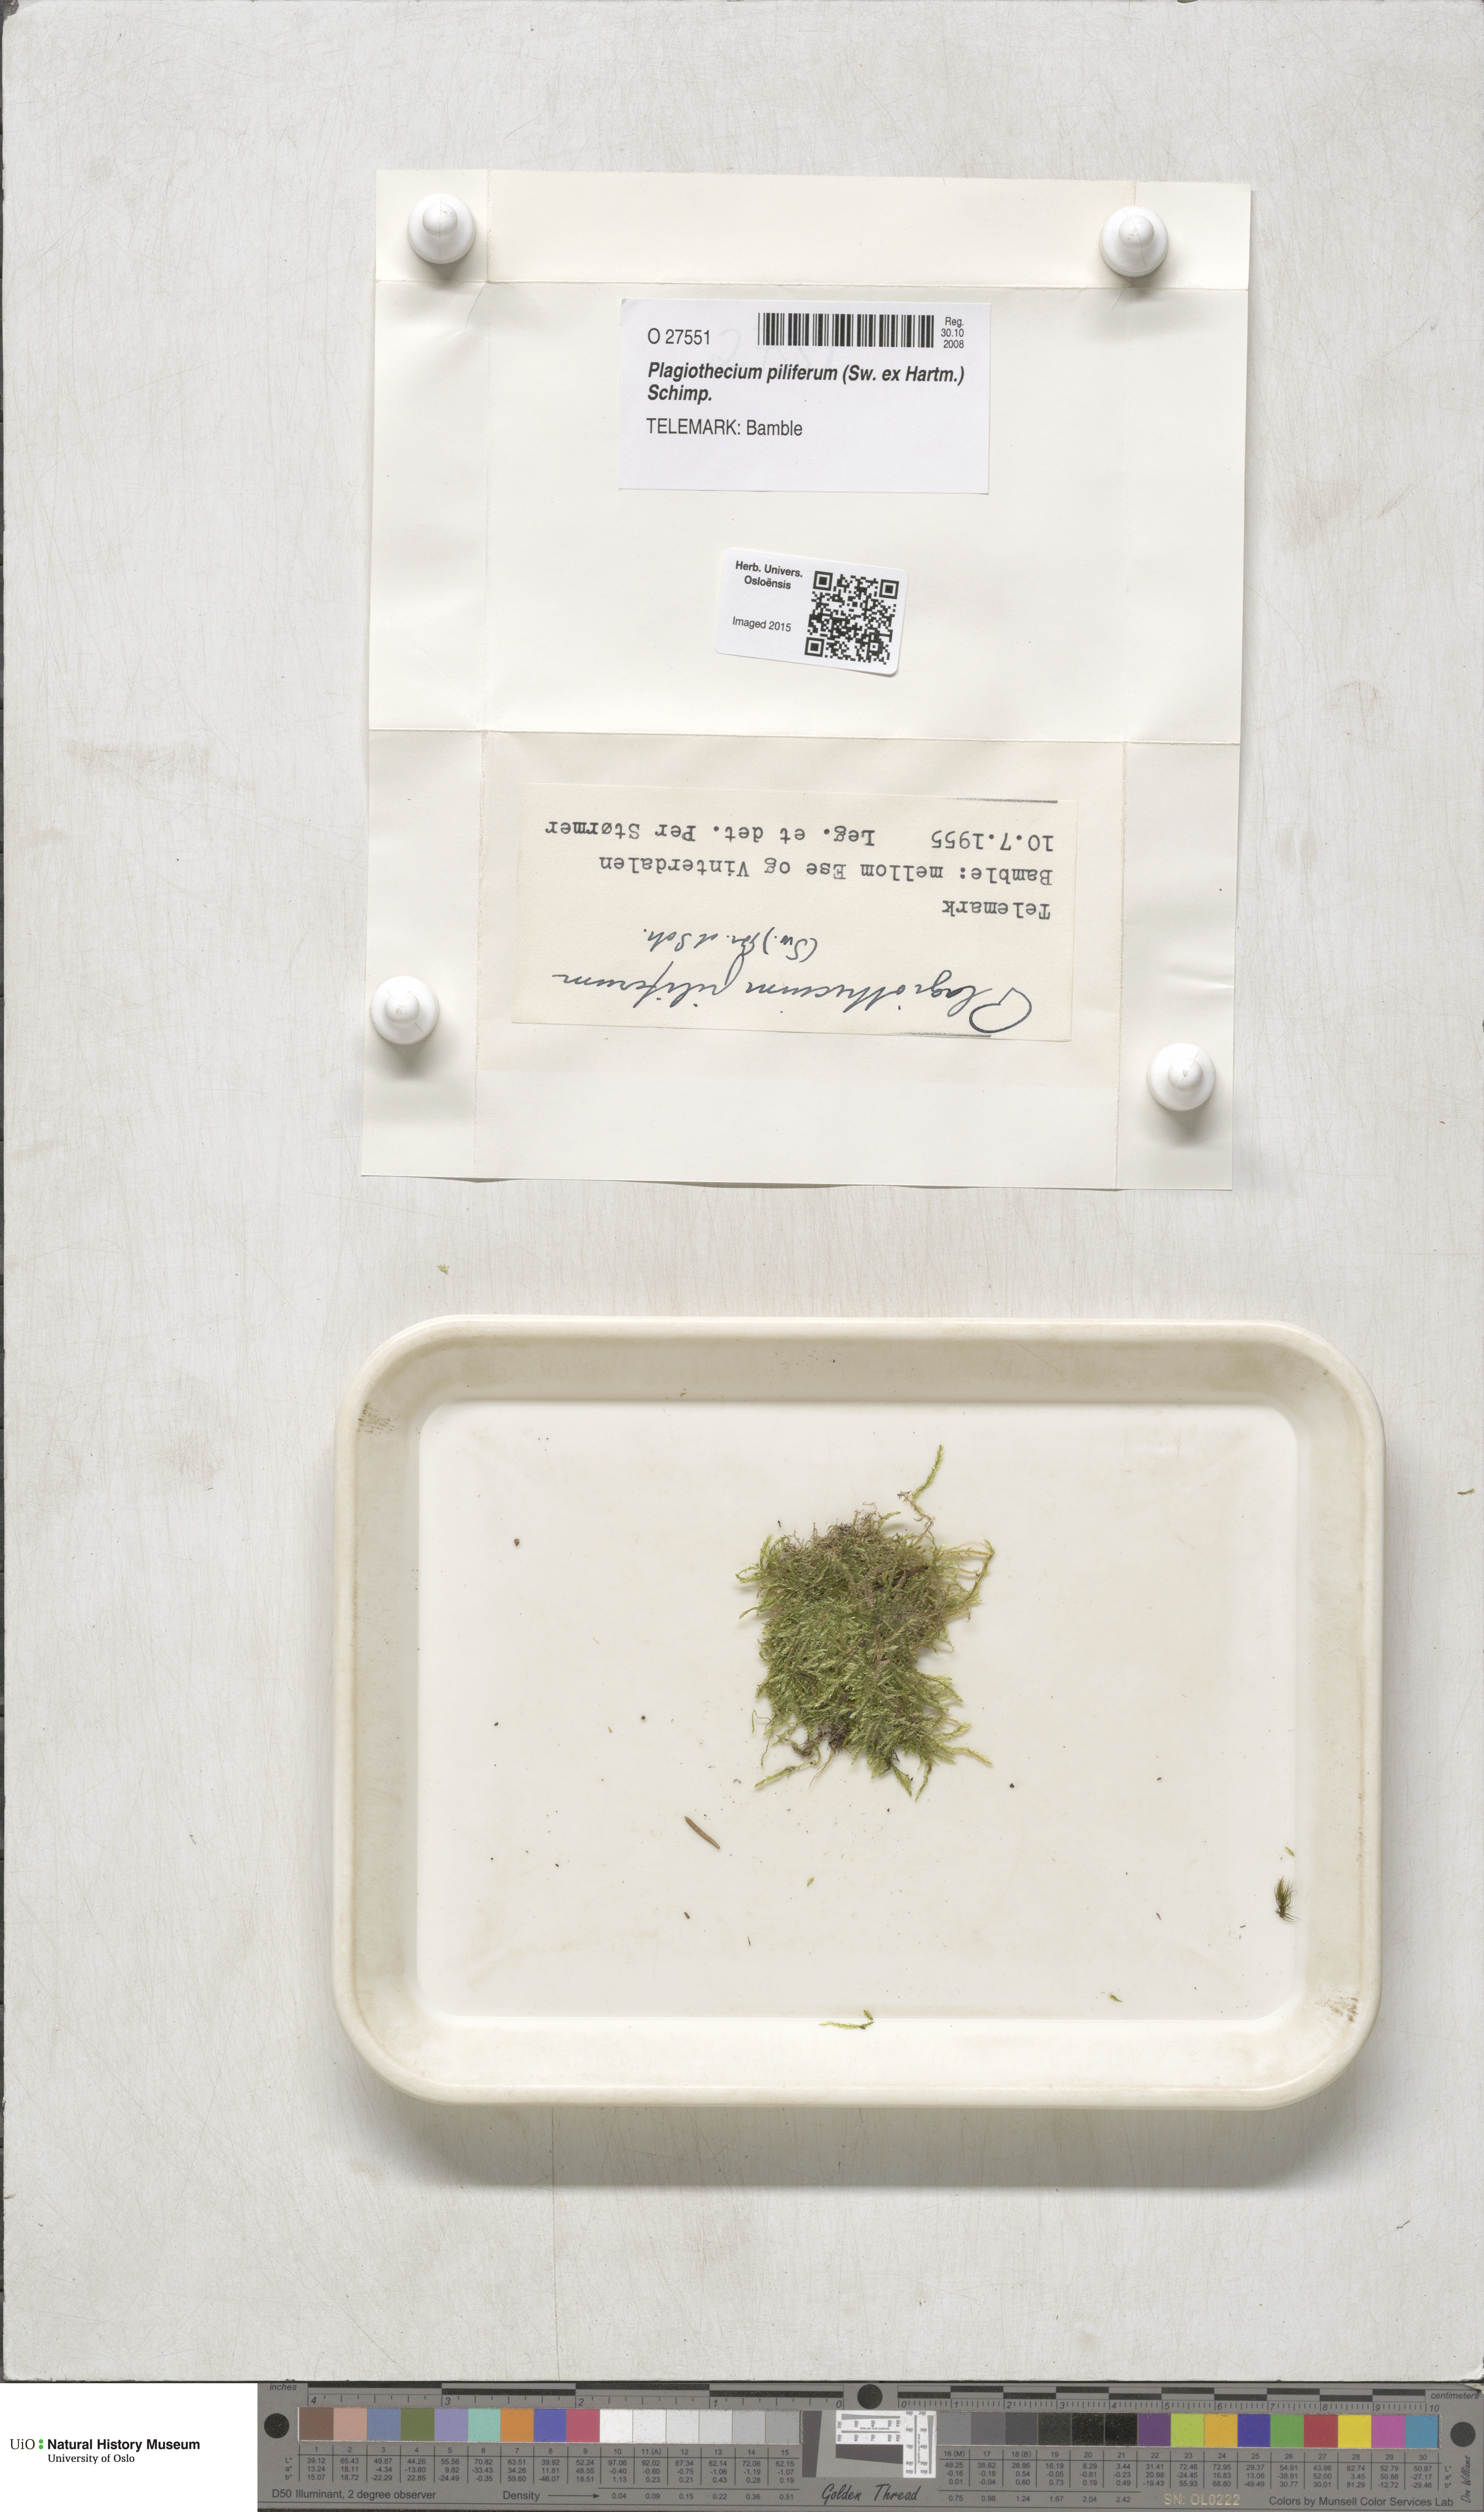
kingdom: Plantae
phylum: Bryophyta
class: Bryopsida
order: Hypnales
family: Plagiotheciaceae
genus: Rectithecium
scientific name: Rectithecium piliferum
